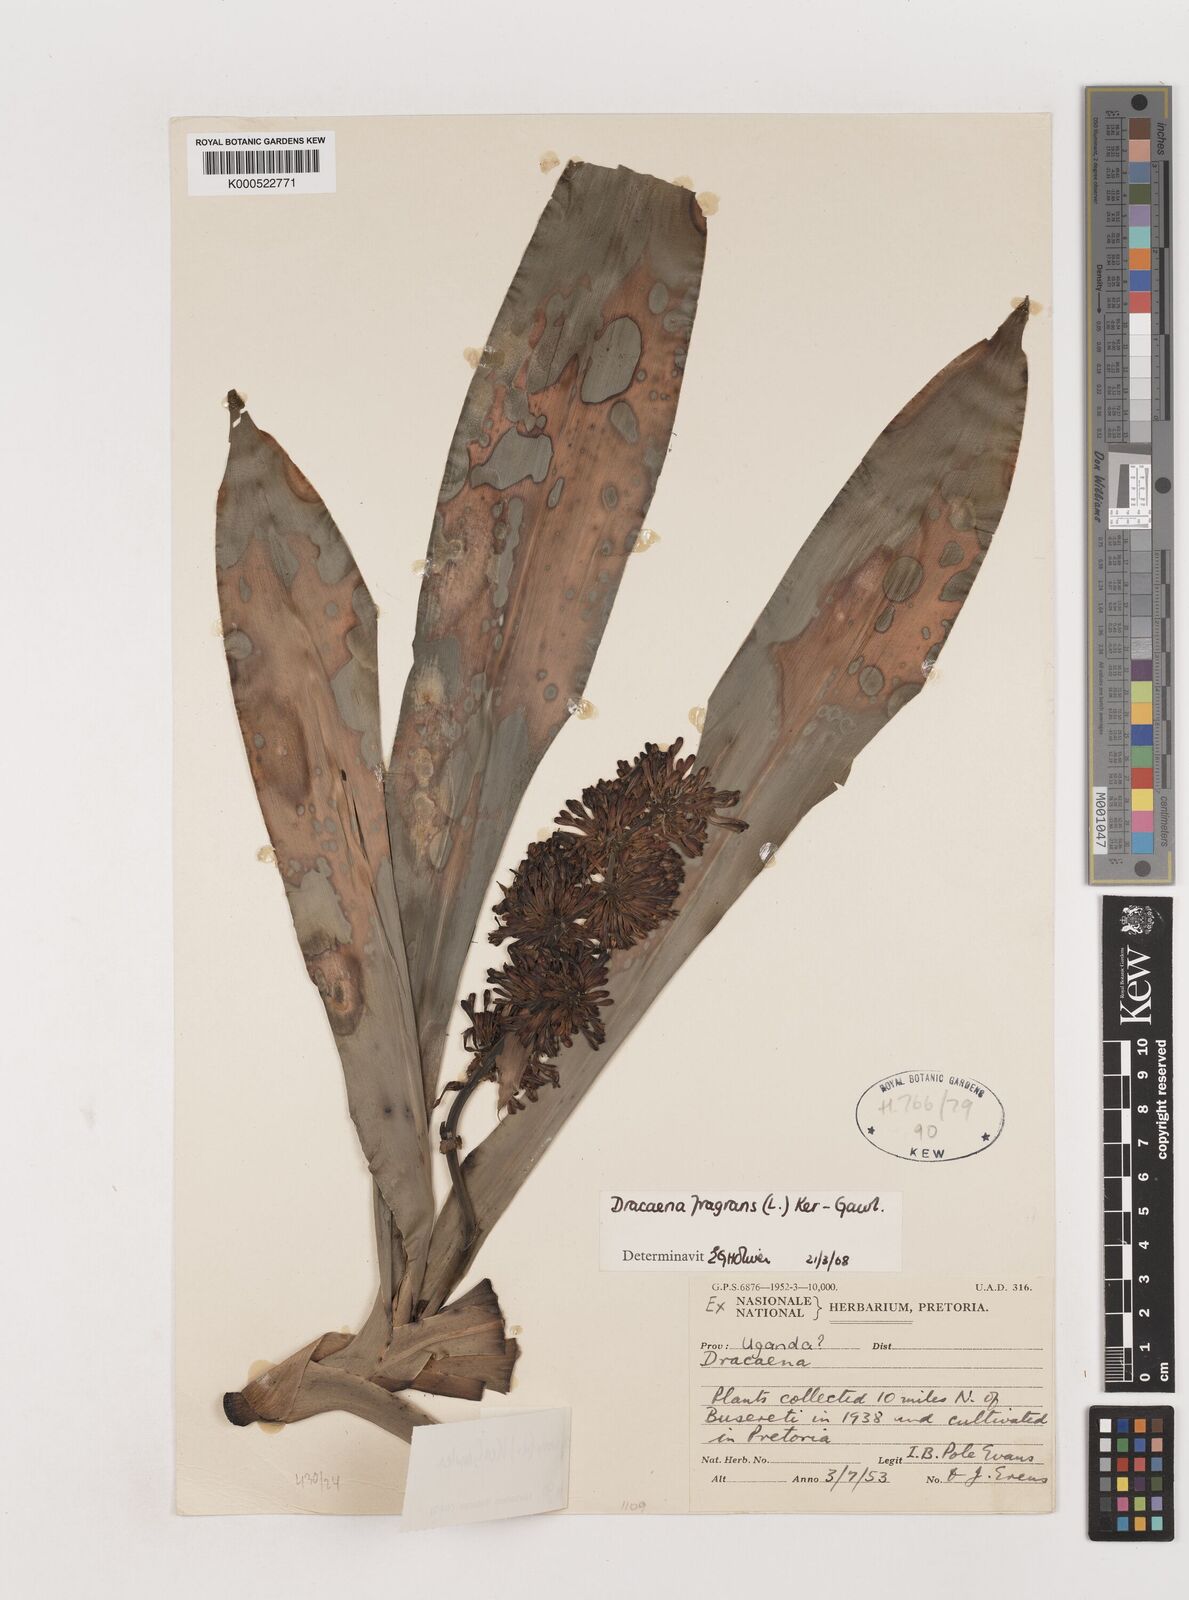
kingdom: Plantae
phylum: Tracheophyta
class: Liliopsida
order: Asparagales
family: Asparagaceae
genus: Dracaena
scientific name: Dracaena fragrans
